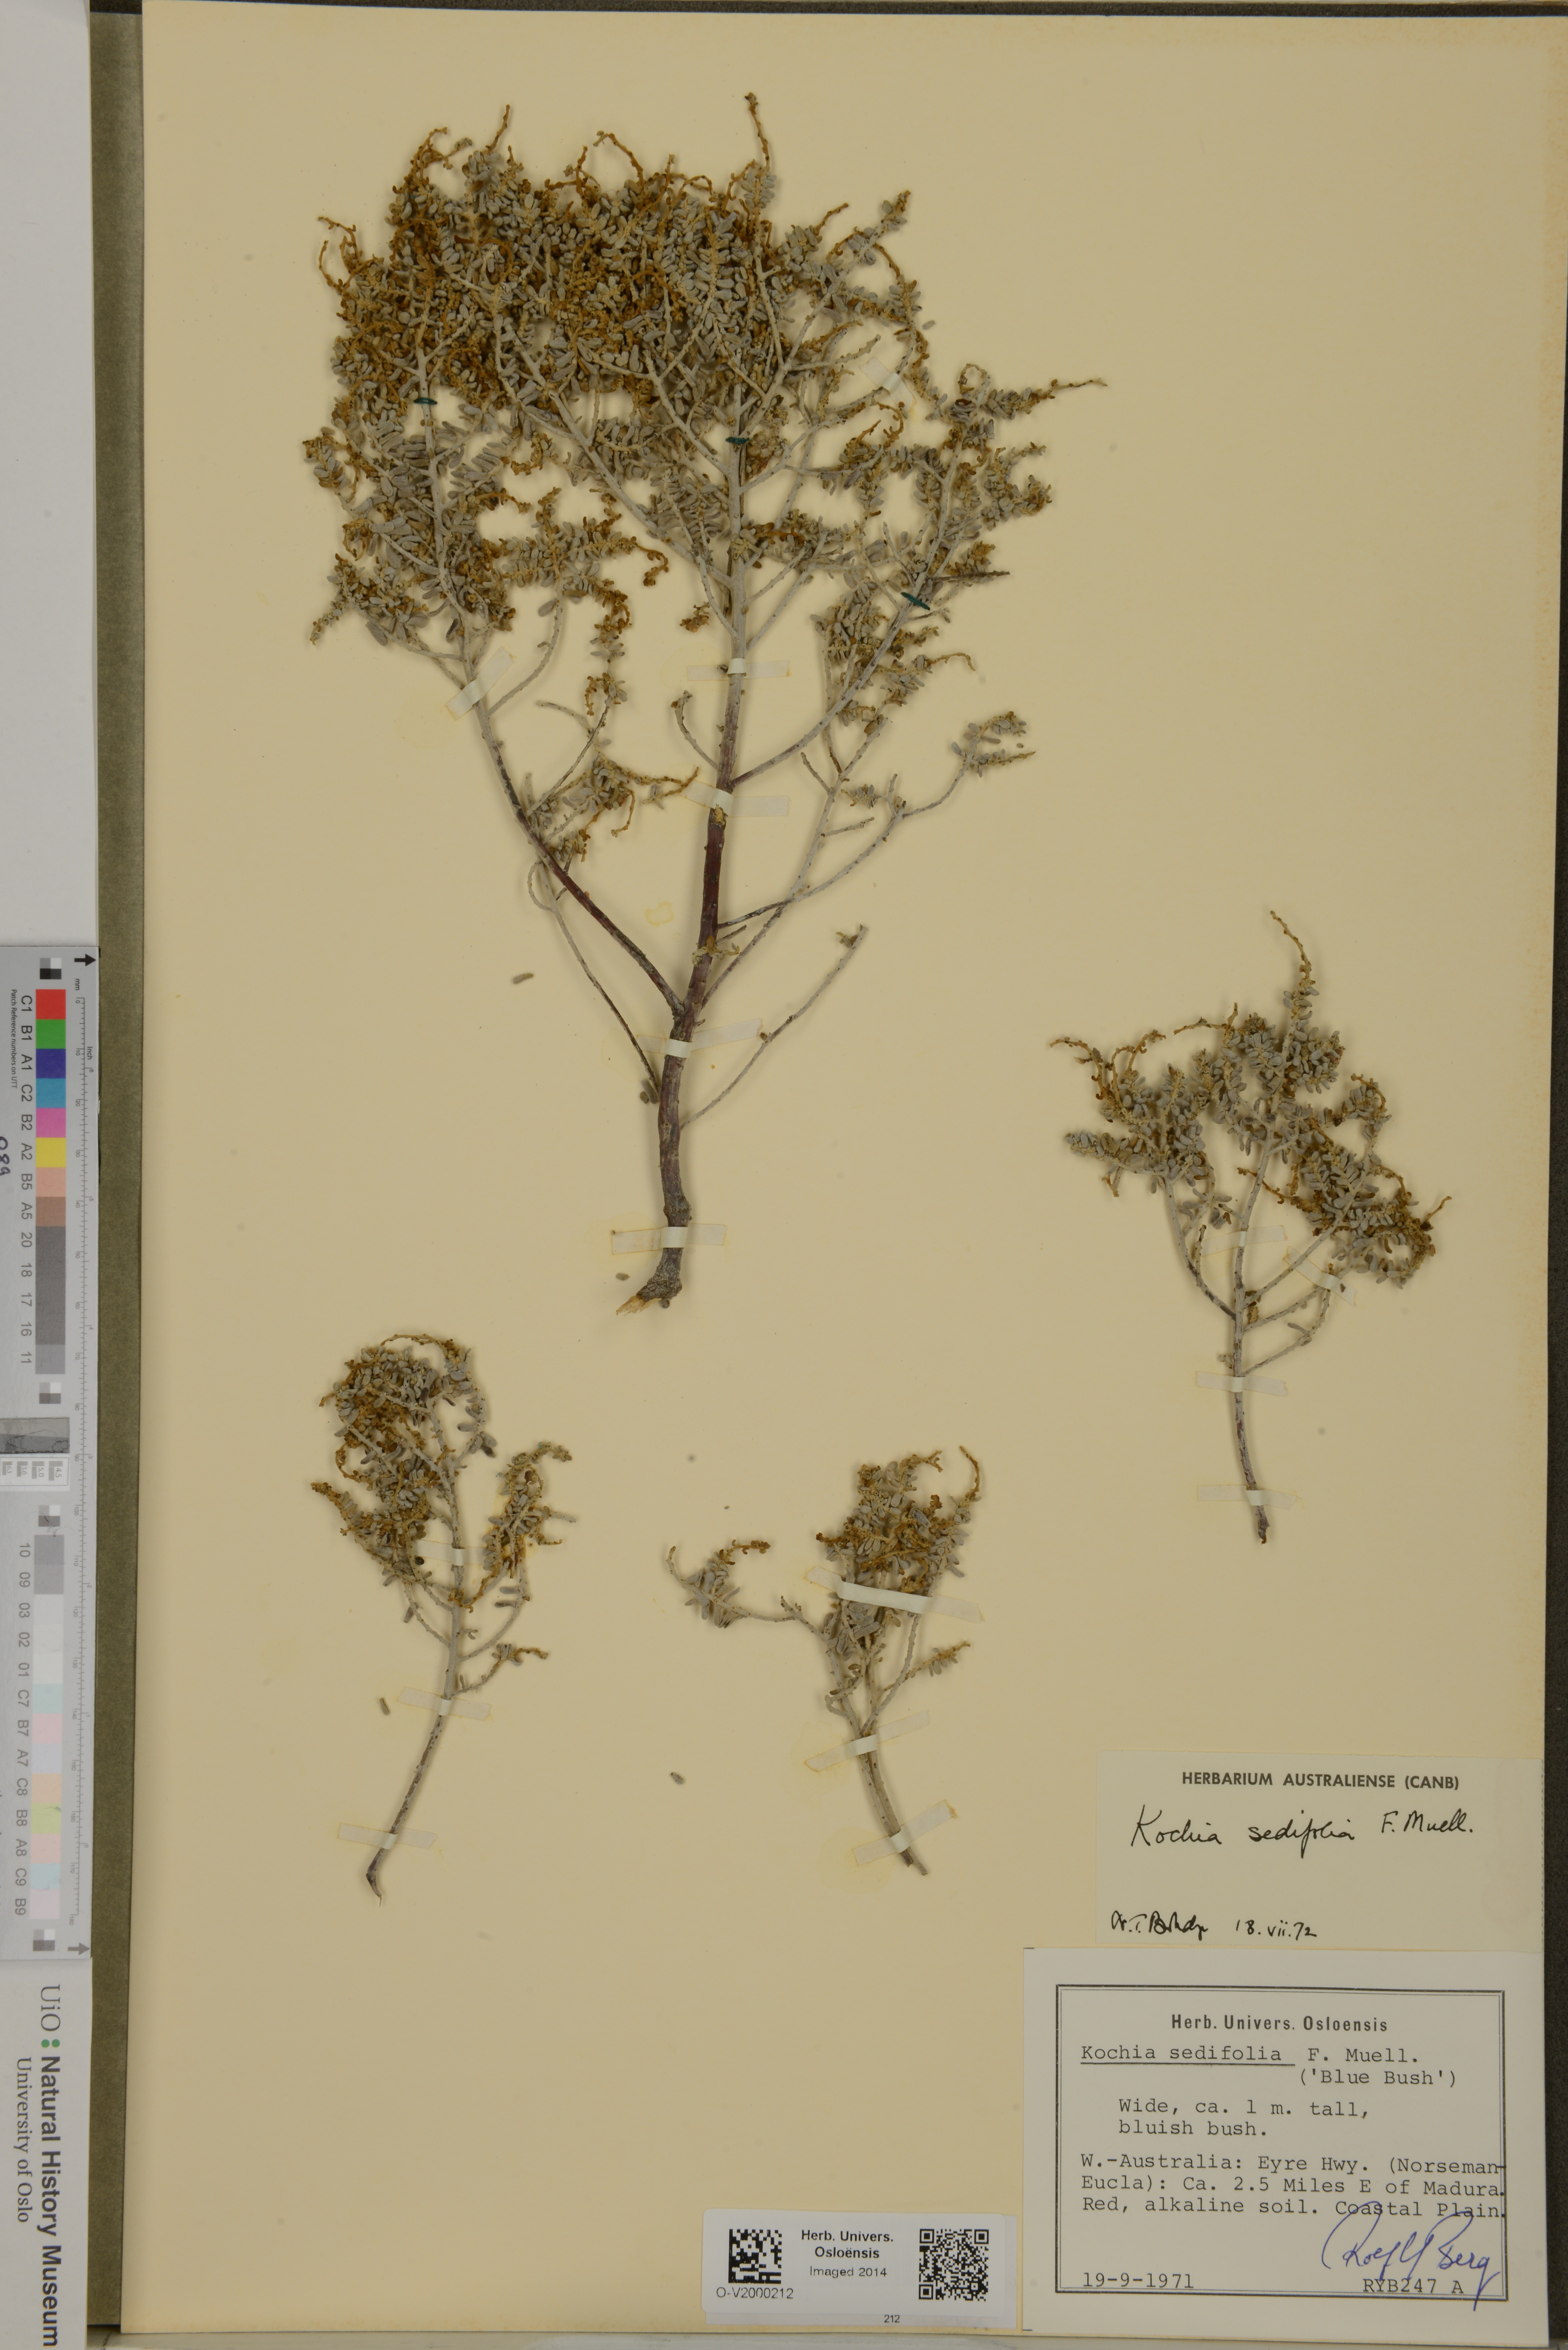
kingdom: Plantae
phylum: Tracheophyta
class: Magnoliopsida
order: Caryophyllales
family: Amaranthaceae
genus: Maireana
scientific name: Maireana sedifolia
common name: Hoary bluebush
